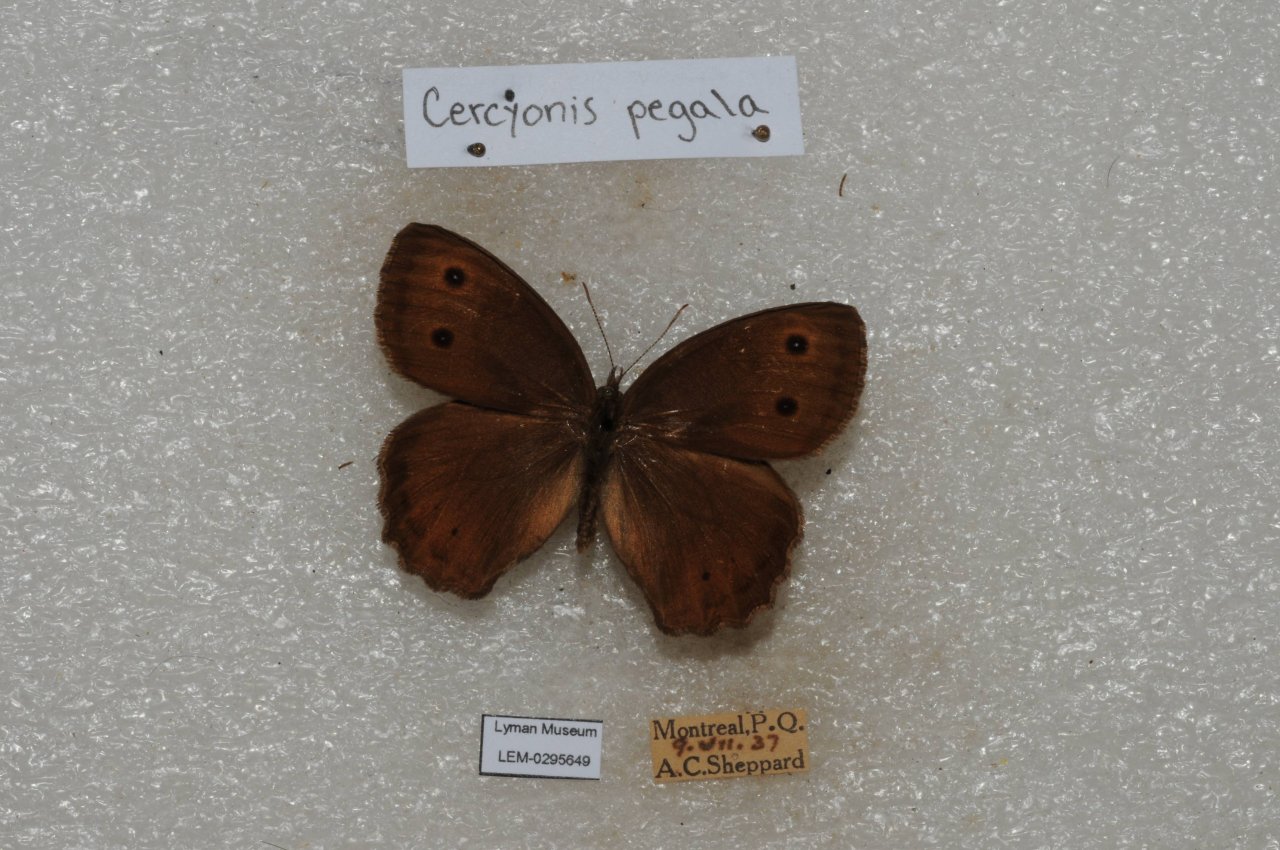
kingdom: Animalia
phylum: Arthropoda
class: Insecta
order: Lepidoptera
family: Nymphalidae
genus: Cercyonis
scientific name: Cercyonis pegala
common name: Common Wood-Nymph
